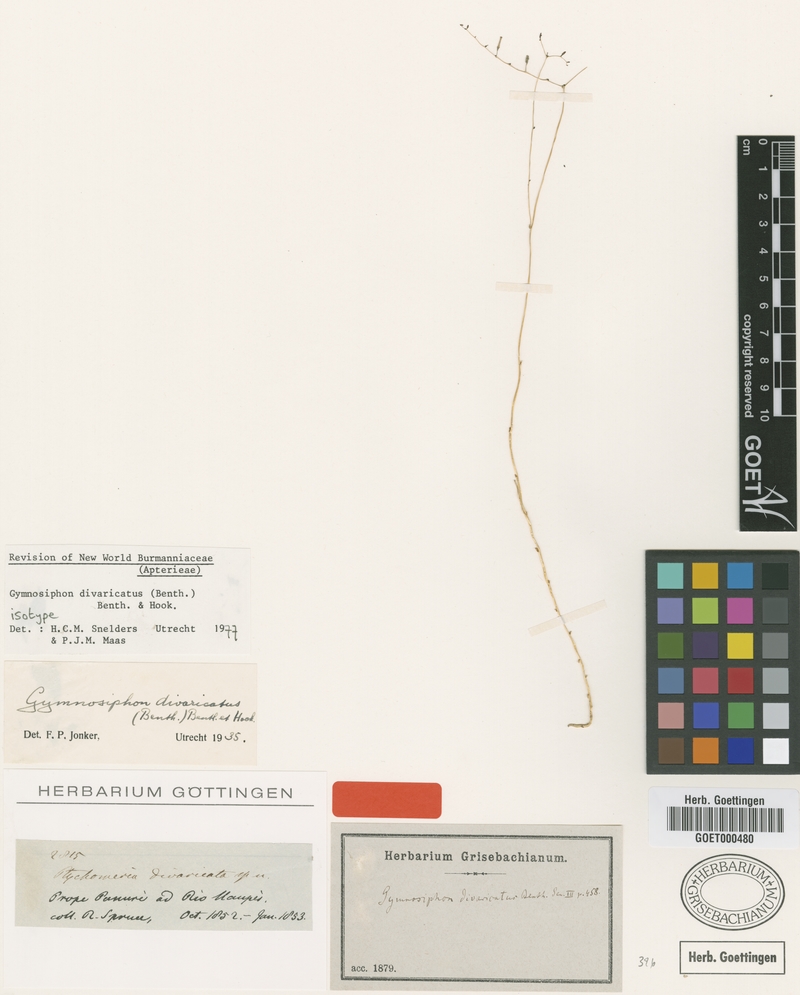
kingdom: Plantae
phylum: Tracheophyta
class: Liliopsida
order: Dioscoreales
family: Burmanniaceae
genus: Gymnosiphon
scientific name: Gymnosiphon divaricatus
